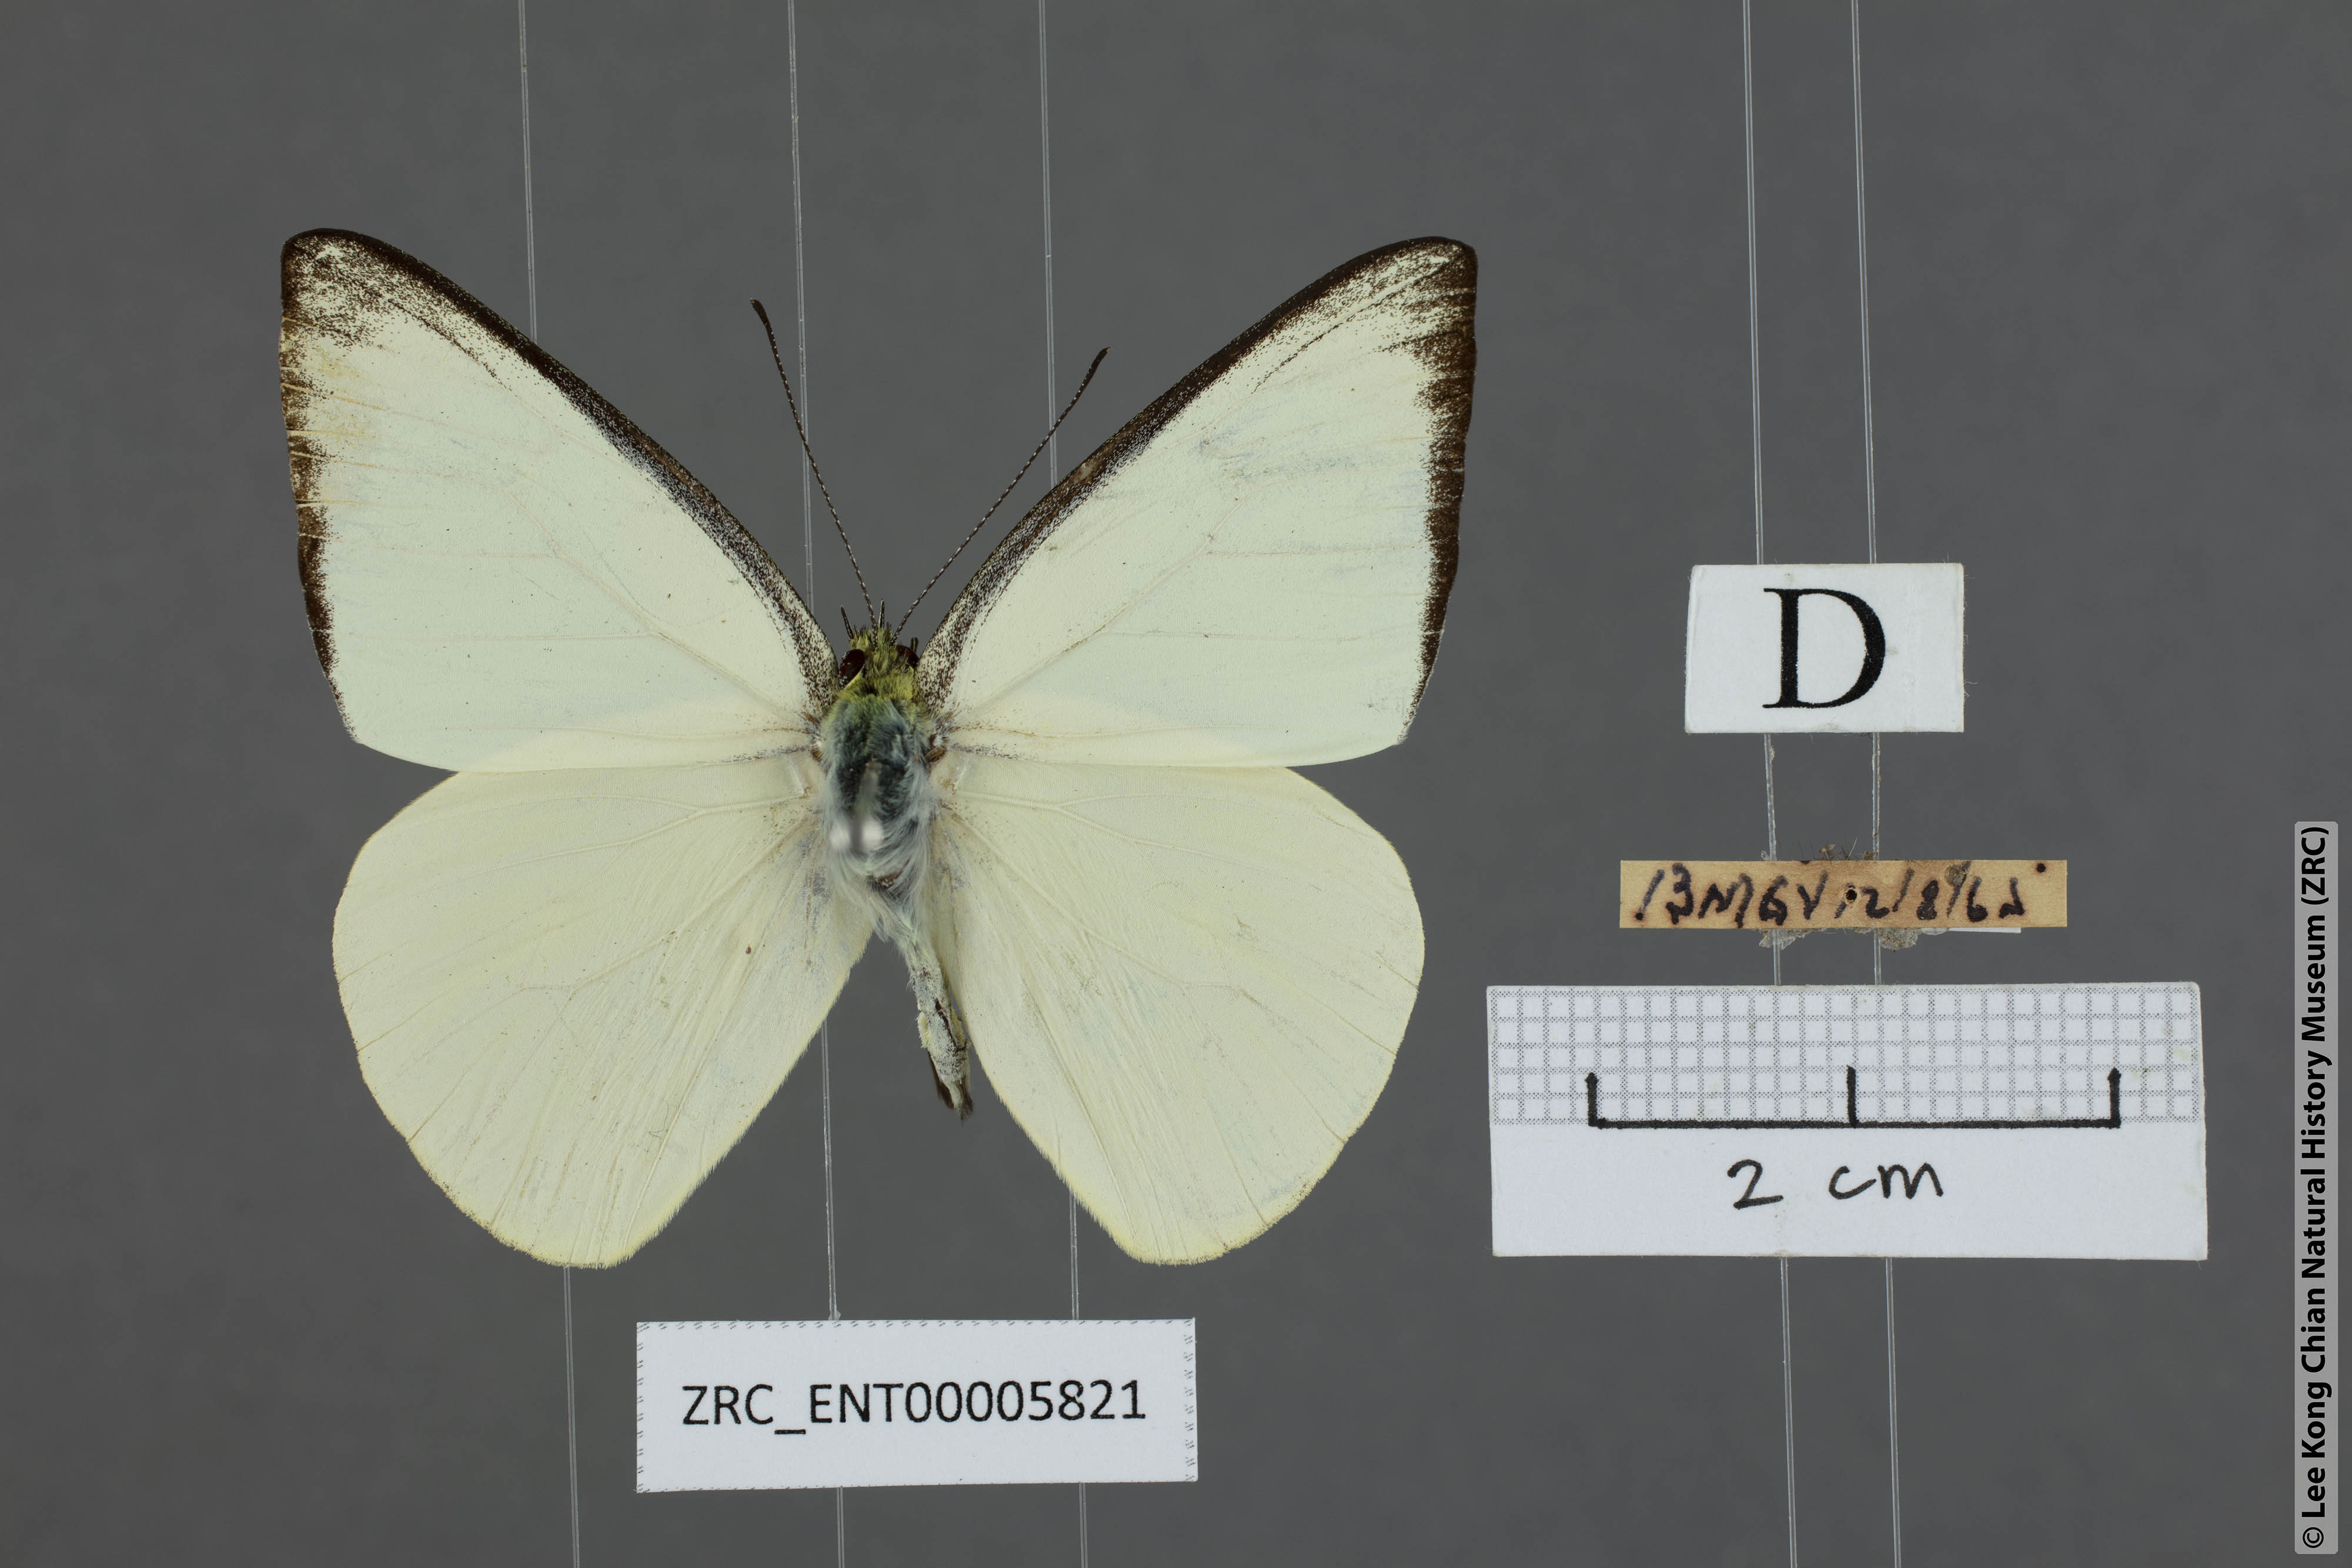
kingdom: Animalia
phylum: Arthropoda
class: Insecta
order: Lepidoptera
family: Pieridae
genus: Saletara
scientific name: Saletara liberia
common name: Pointed albatross
